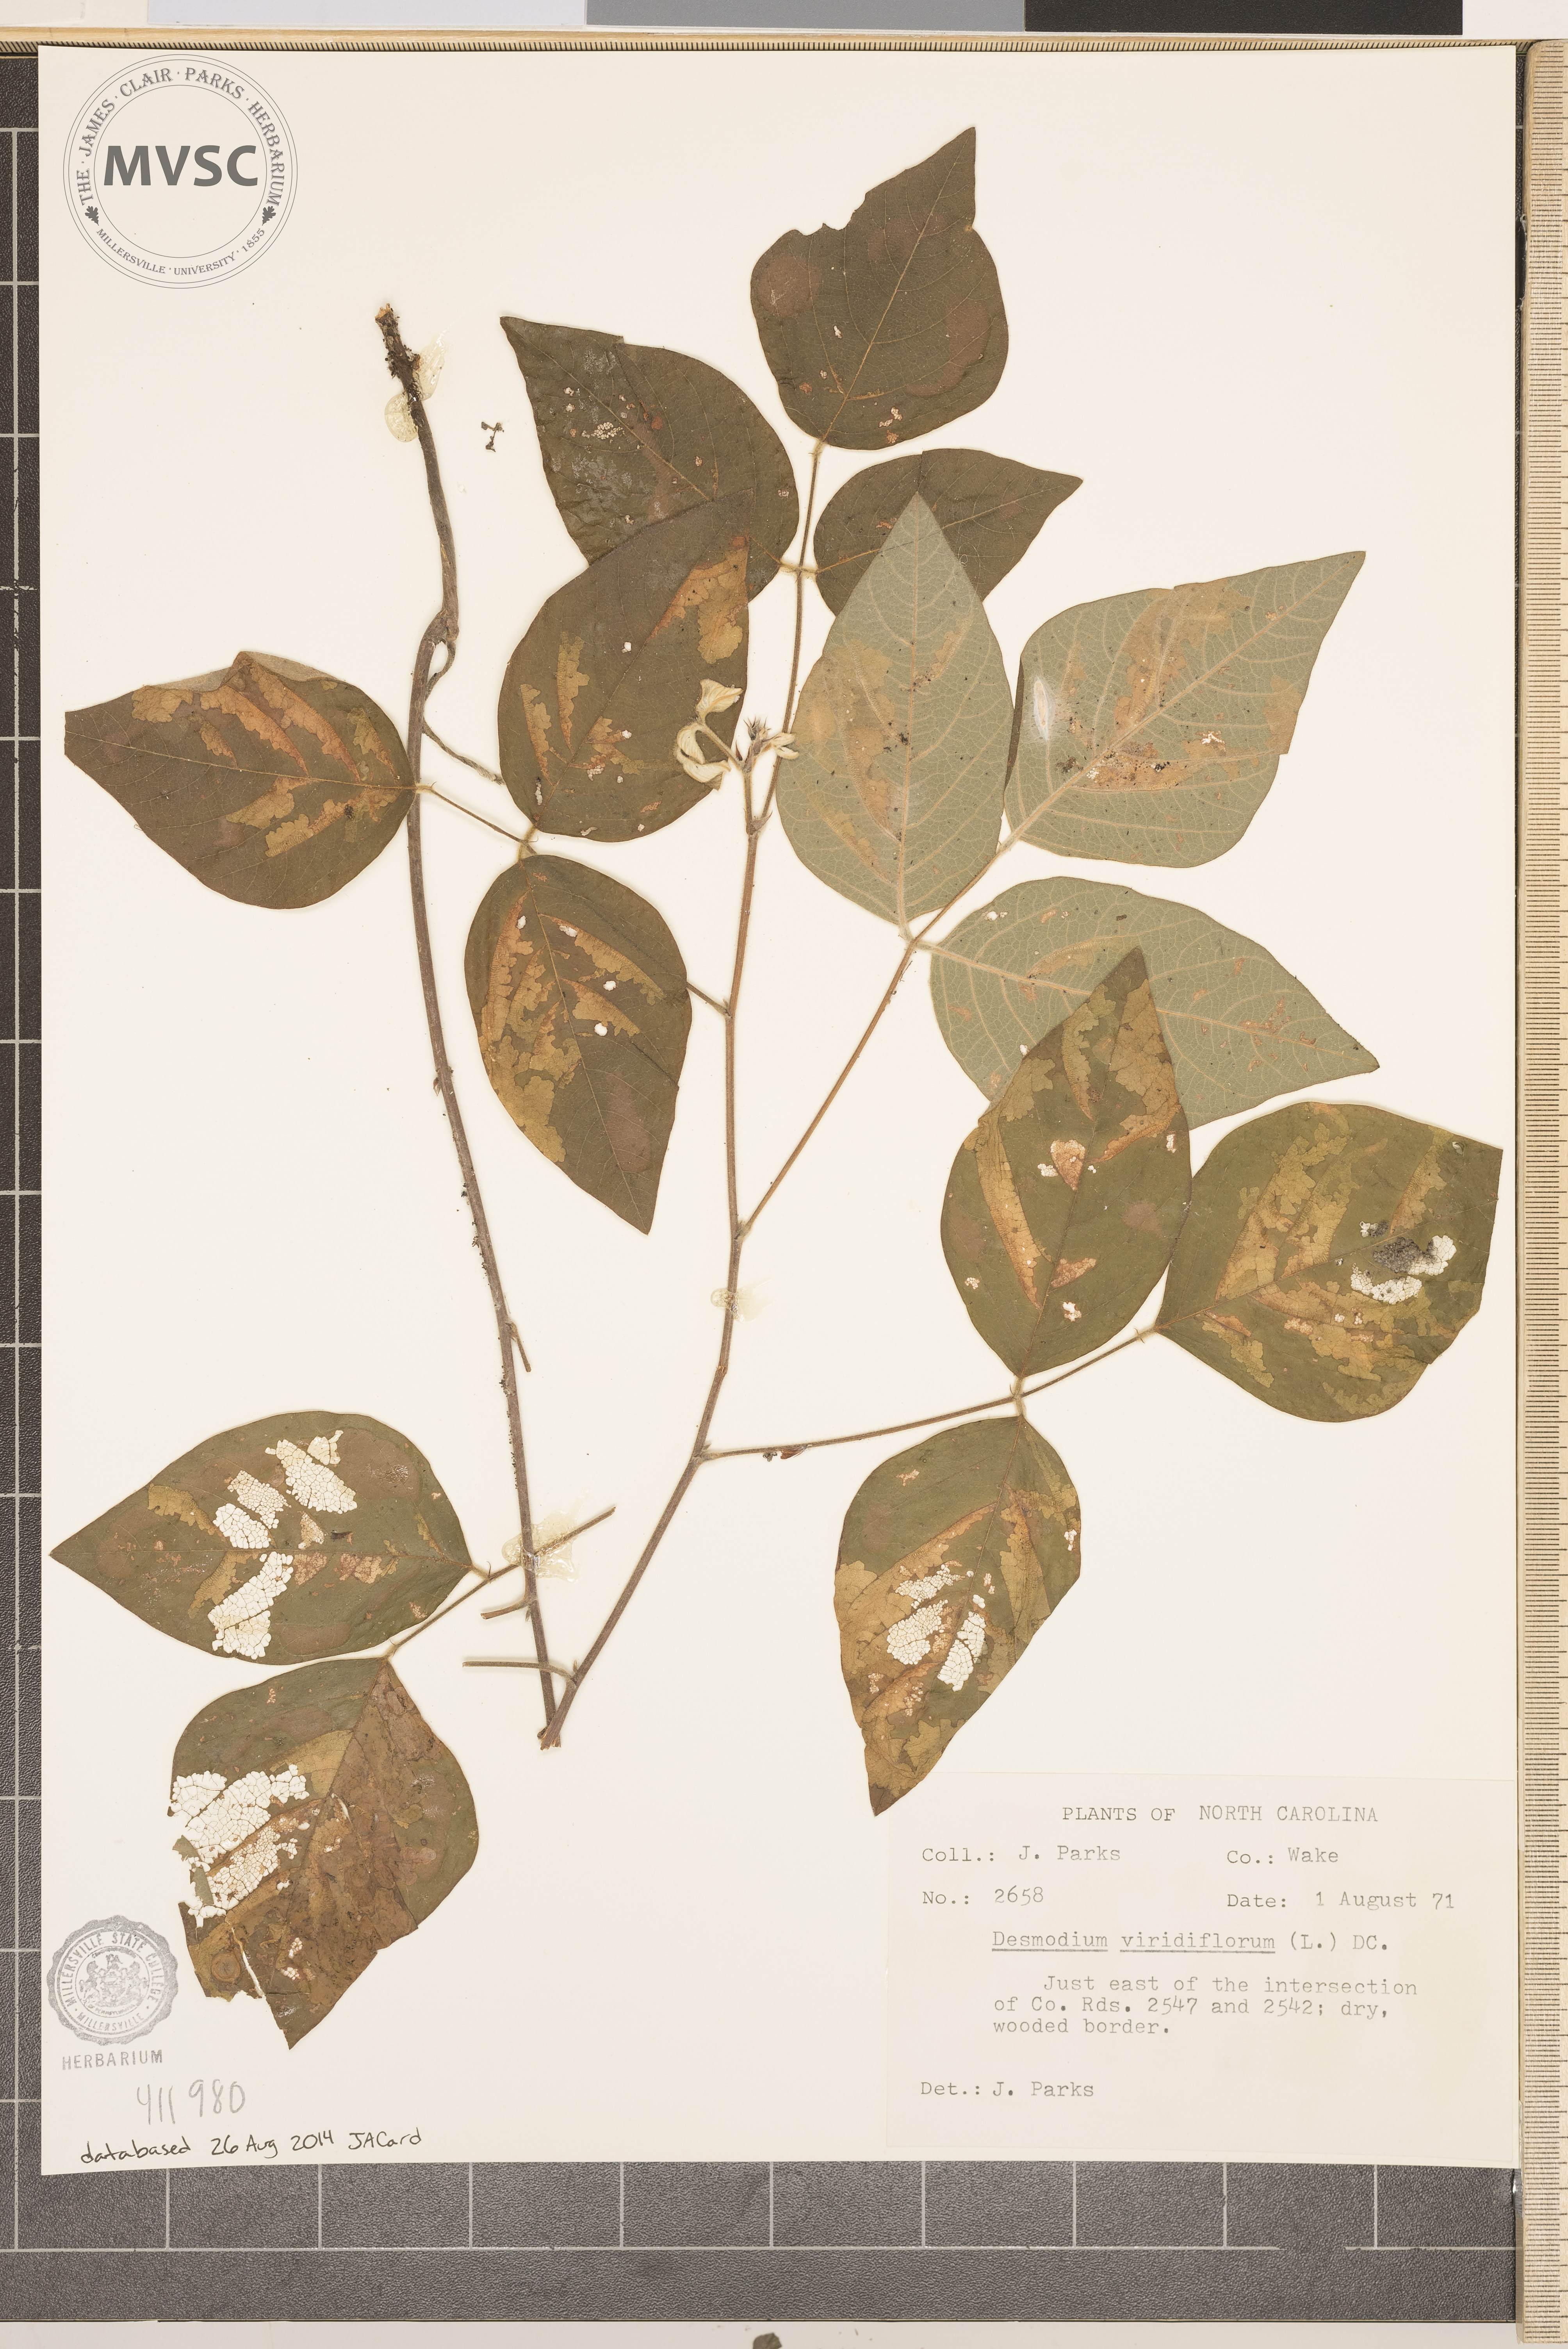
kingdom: Plantae
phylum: Tracheophyta
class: Magnoliopsida
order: Fabales
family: Fabaceae
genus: Desmodium
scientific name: Desmodium viridiflorum
